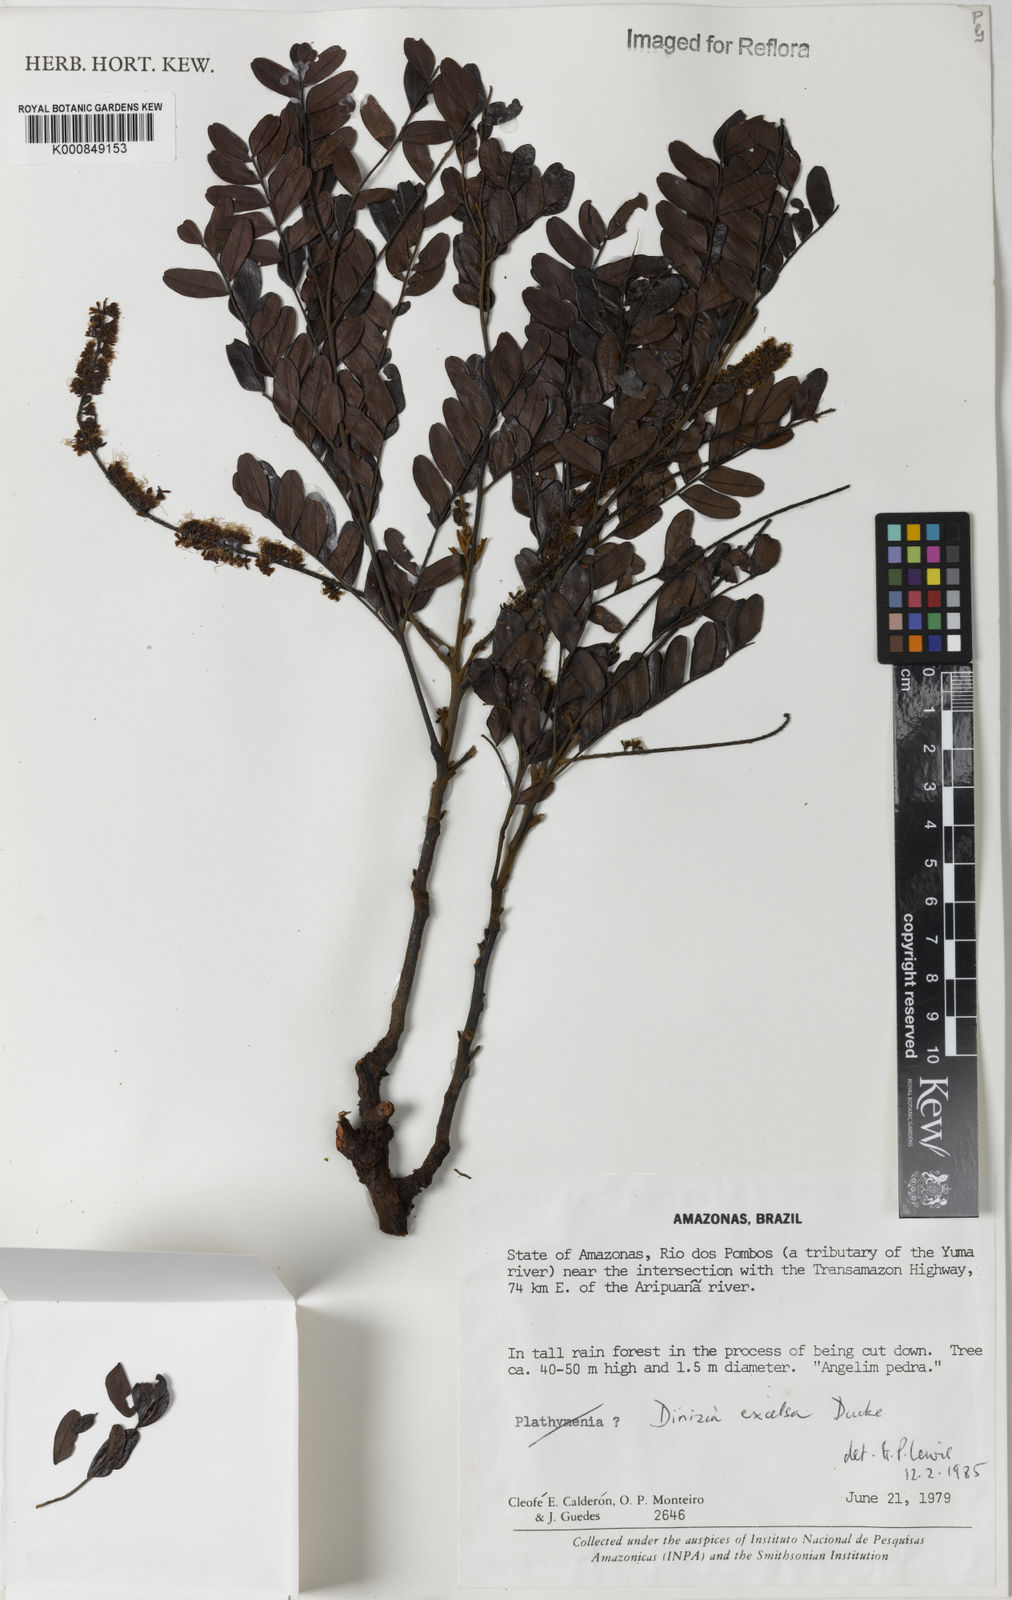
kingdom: Plantae
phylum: Tracheophyta
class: Magnoliopsida
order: Fabales
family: Fabaceae
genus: Dinizia
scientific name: Dinizia excelsa
